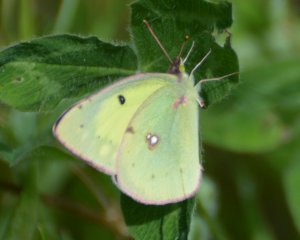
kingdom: Animalia
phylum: Arthropoda
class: Insecta
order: Lepidoptera
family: Pieridae
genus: Colias
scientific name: Colias philodice
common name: Clouded Sulphur
